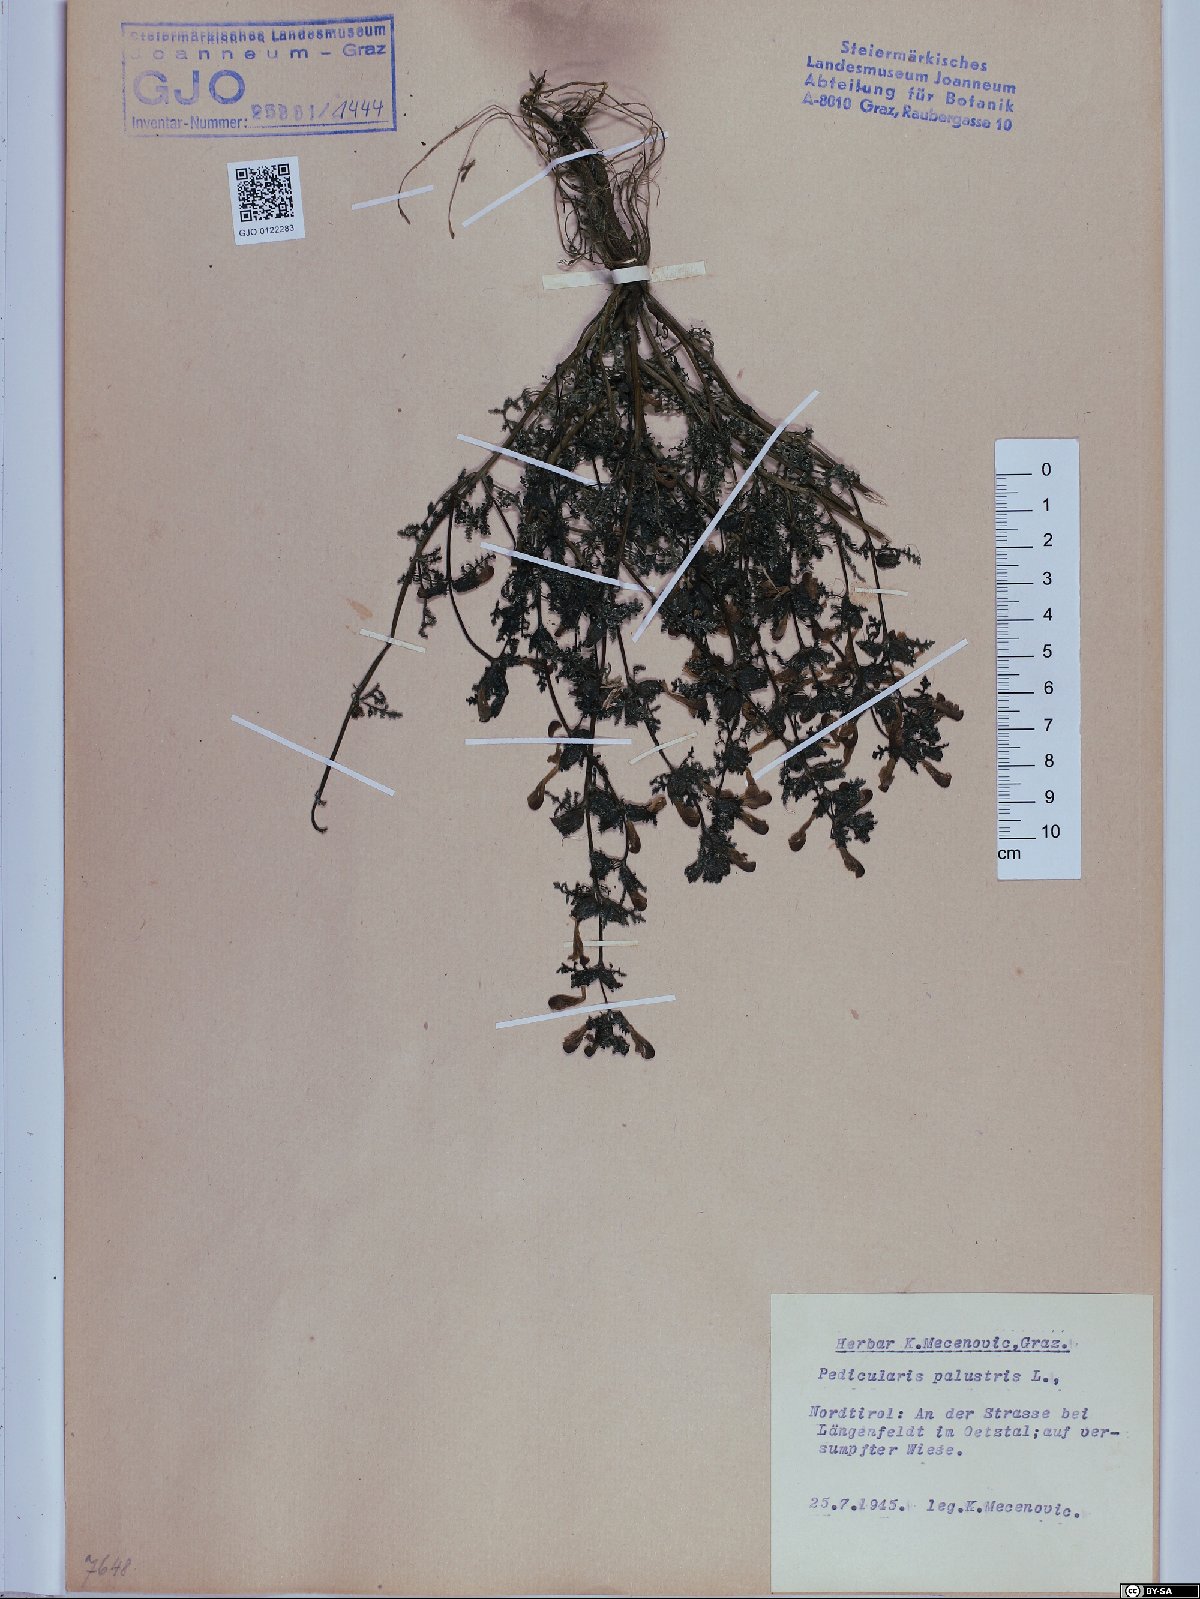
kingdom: Plantae
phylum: Tracheophyta
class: Magnoliopsida
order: Lamiales
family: Orobanchaceae
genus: Pedicularis
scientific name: Pedicularis palustris
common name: Marsh lousewort
